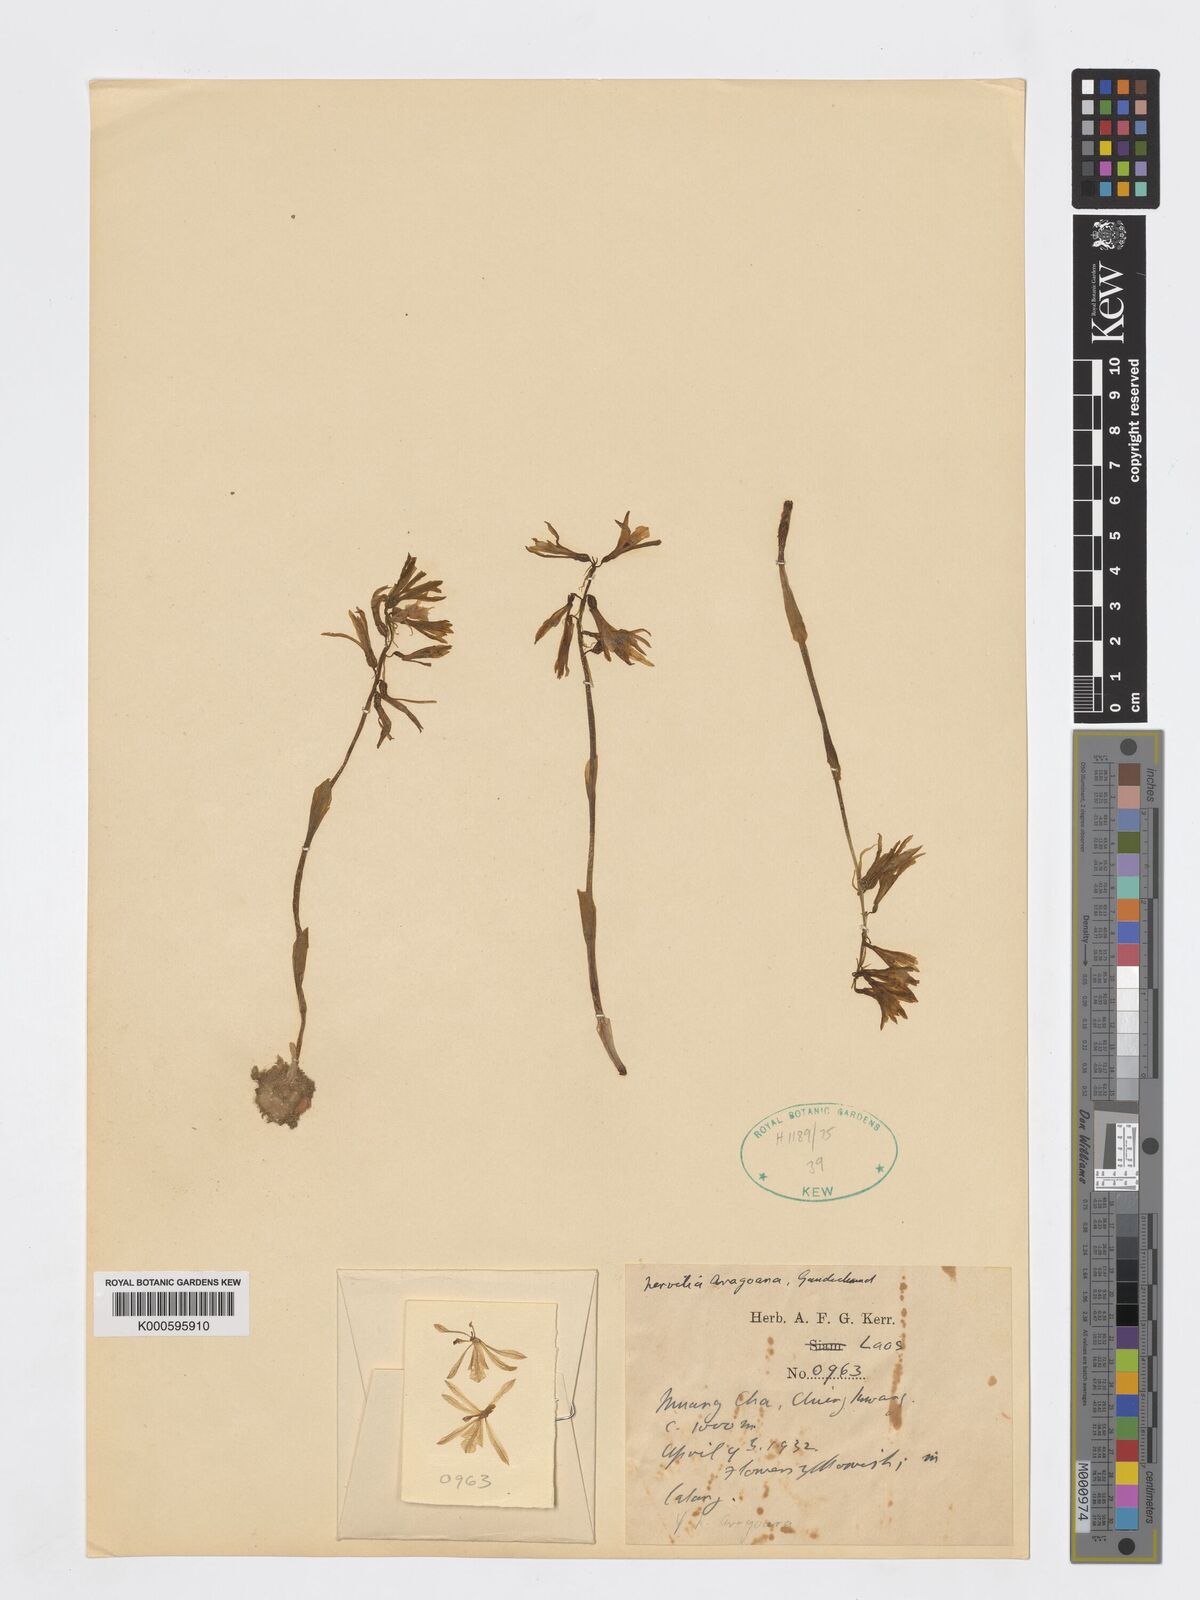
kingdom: Plantae
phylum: Tracheophyta
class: Liliopsida
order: Asparagales
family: Orchidaceae
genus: Nervilia
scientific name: Nervilia concolor
